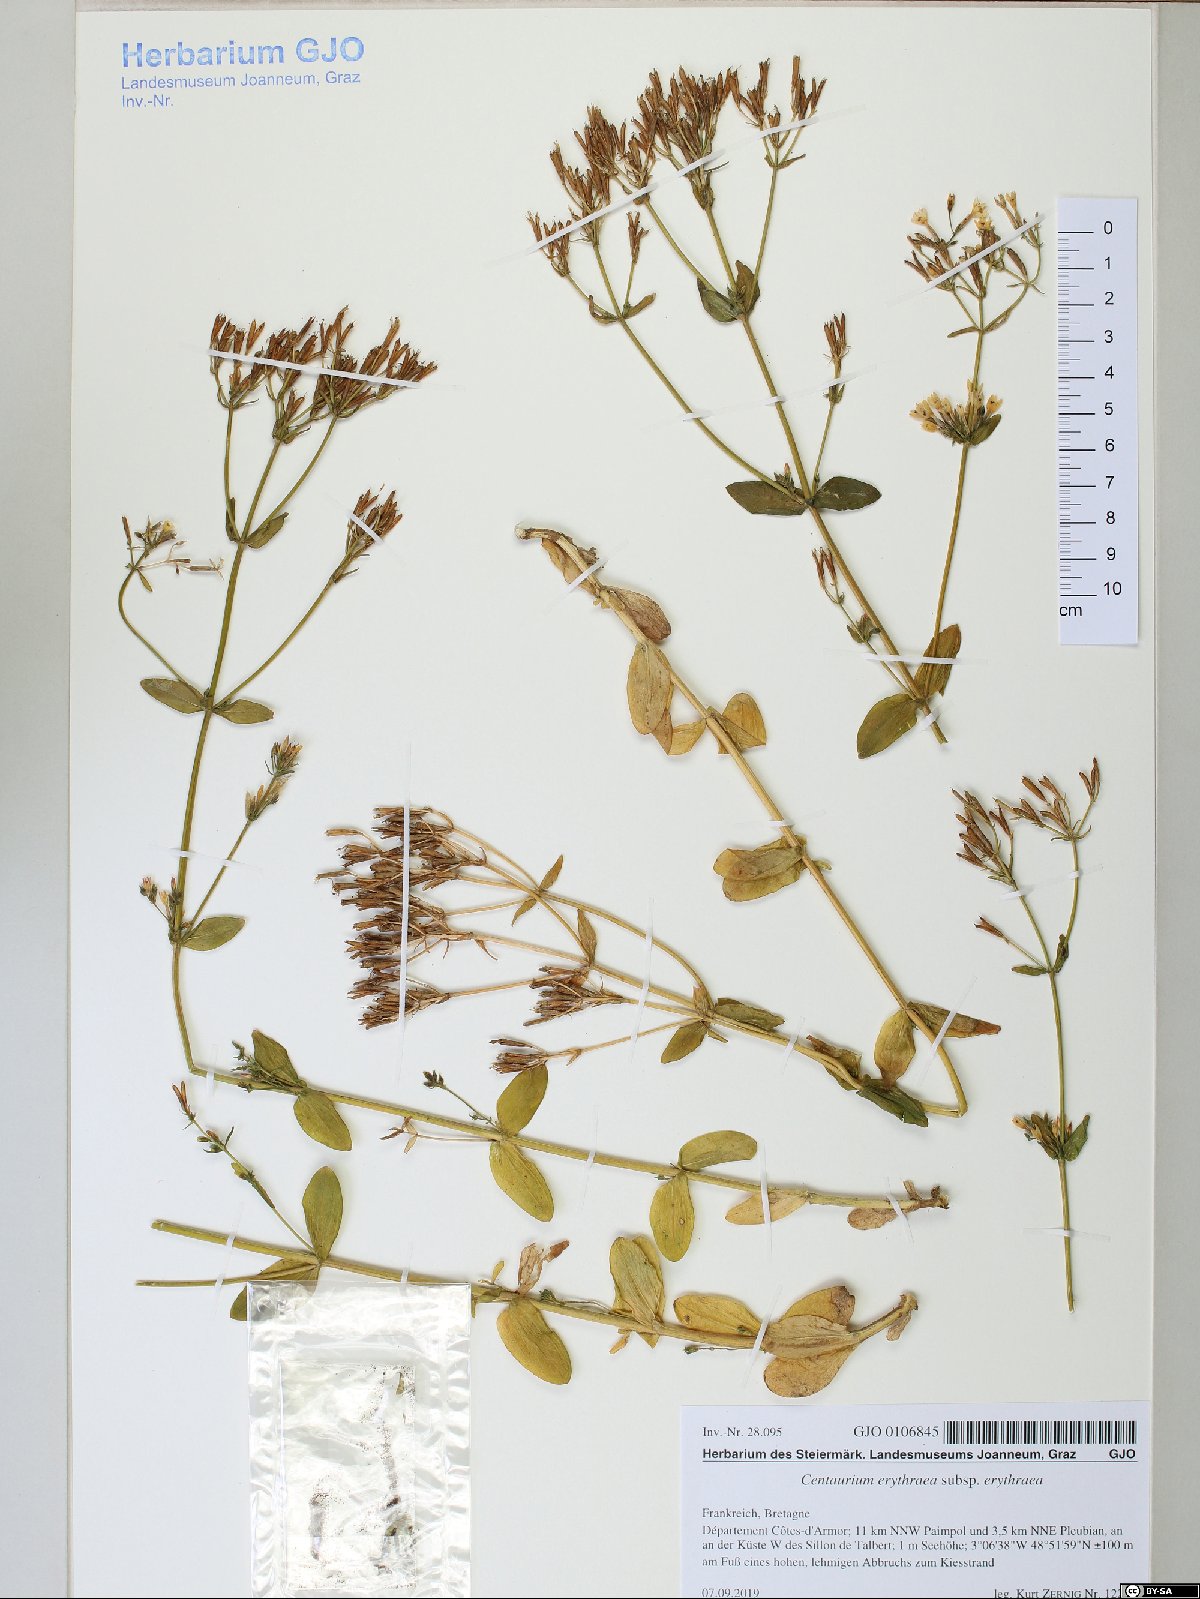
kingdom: Plantae
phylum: Tracheophyta
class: Magnoliopsida
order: Gentianales
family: Gentianaceae
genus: Centaurium
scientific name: Centaurium erythraea
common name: Common centaury
